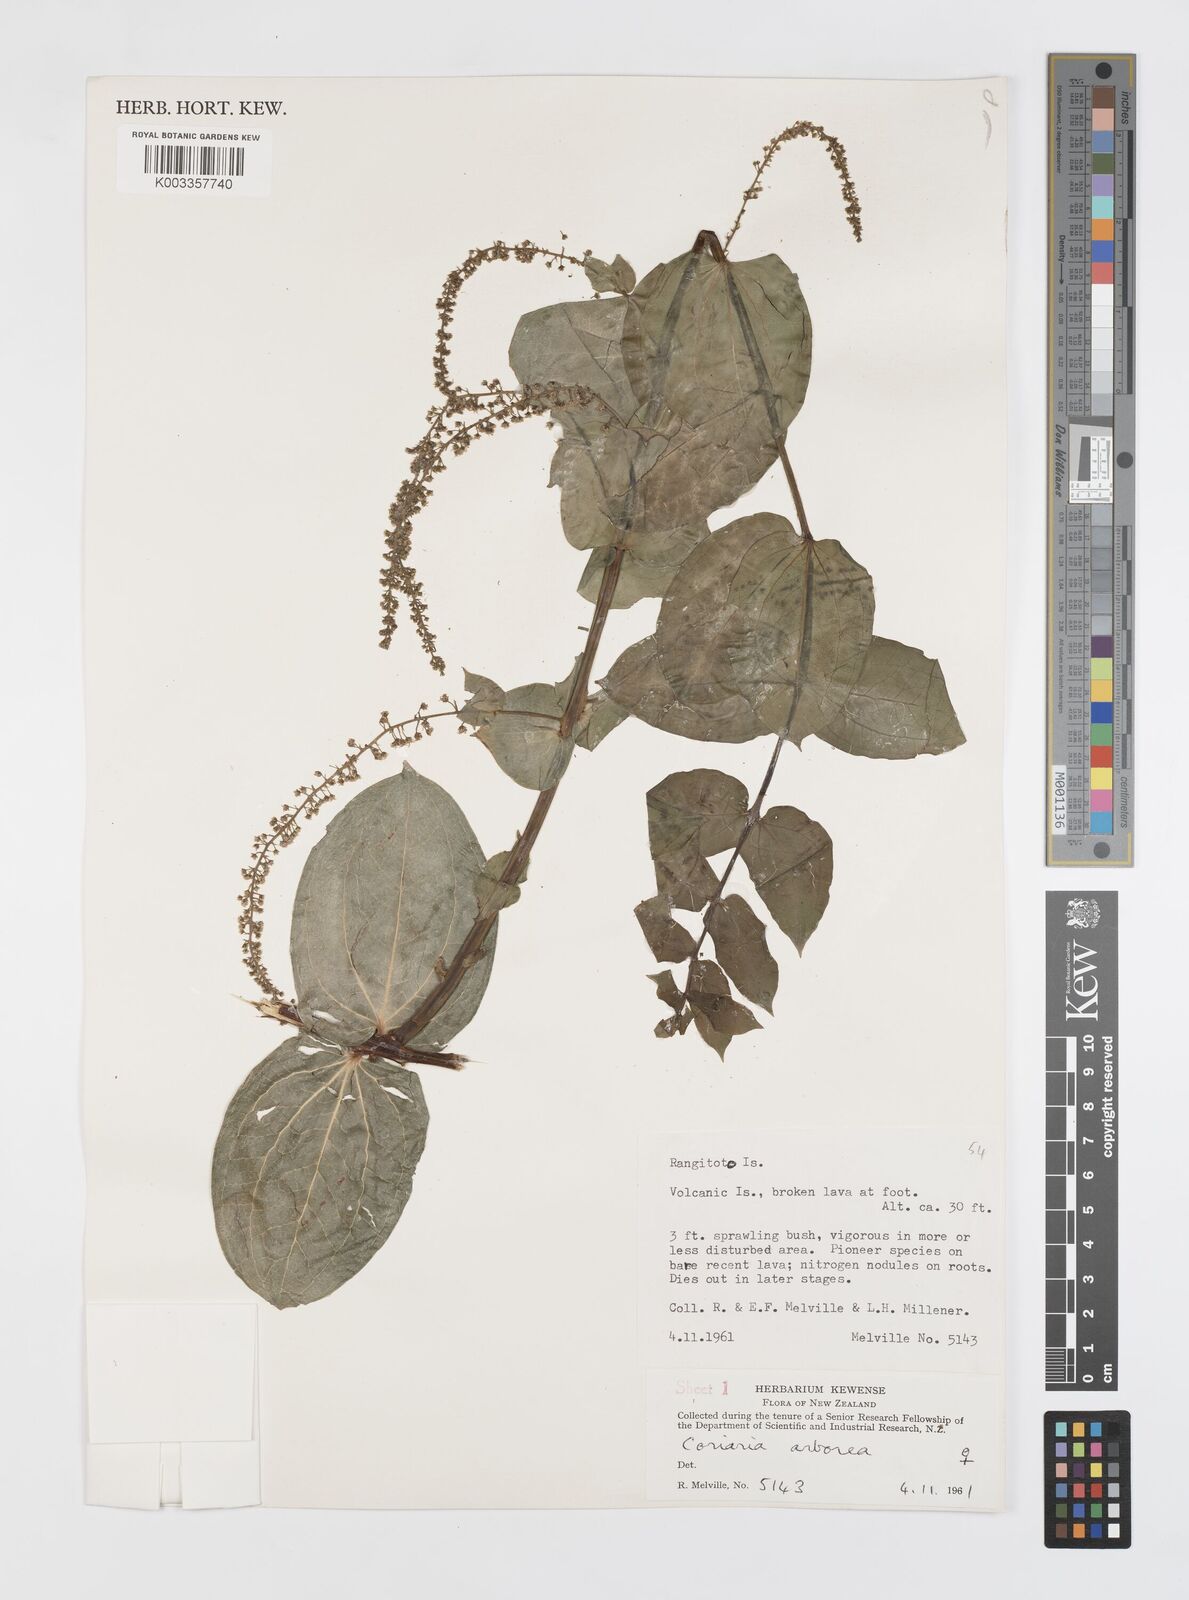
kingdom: Plantae
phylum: Tracheophyta
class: Magnoliopsida
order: Cucurbitales
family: Coriariaceae
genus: Coriaria
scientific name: Coriaria arborea
